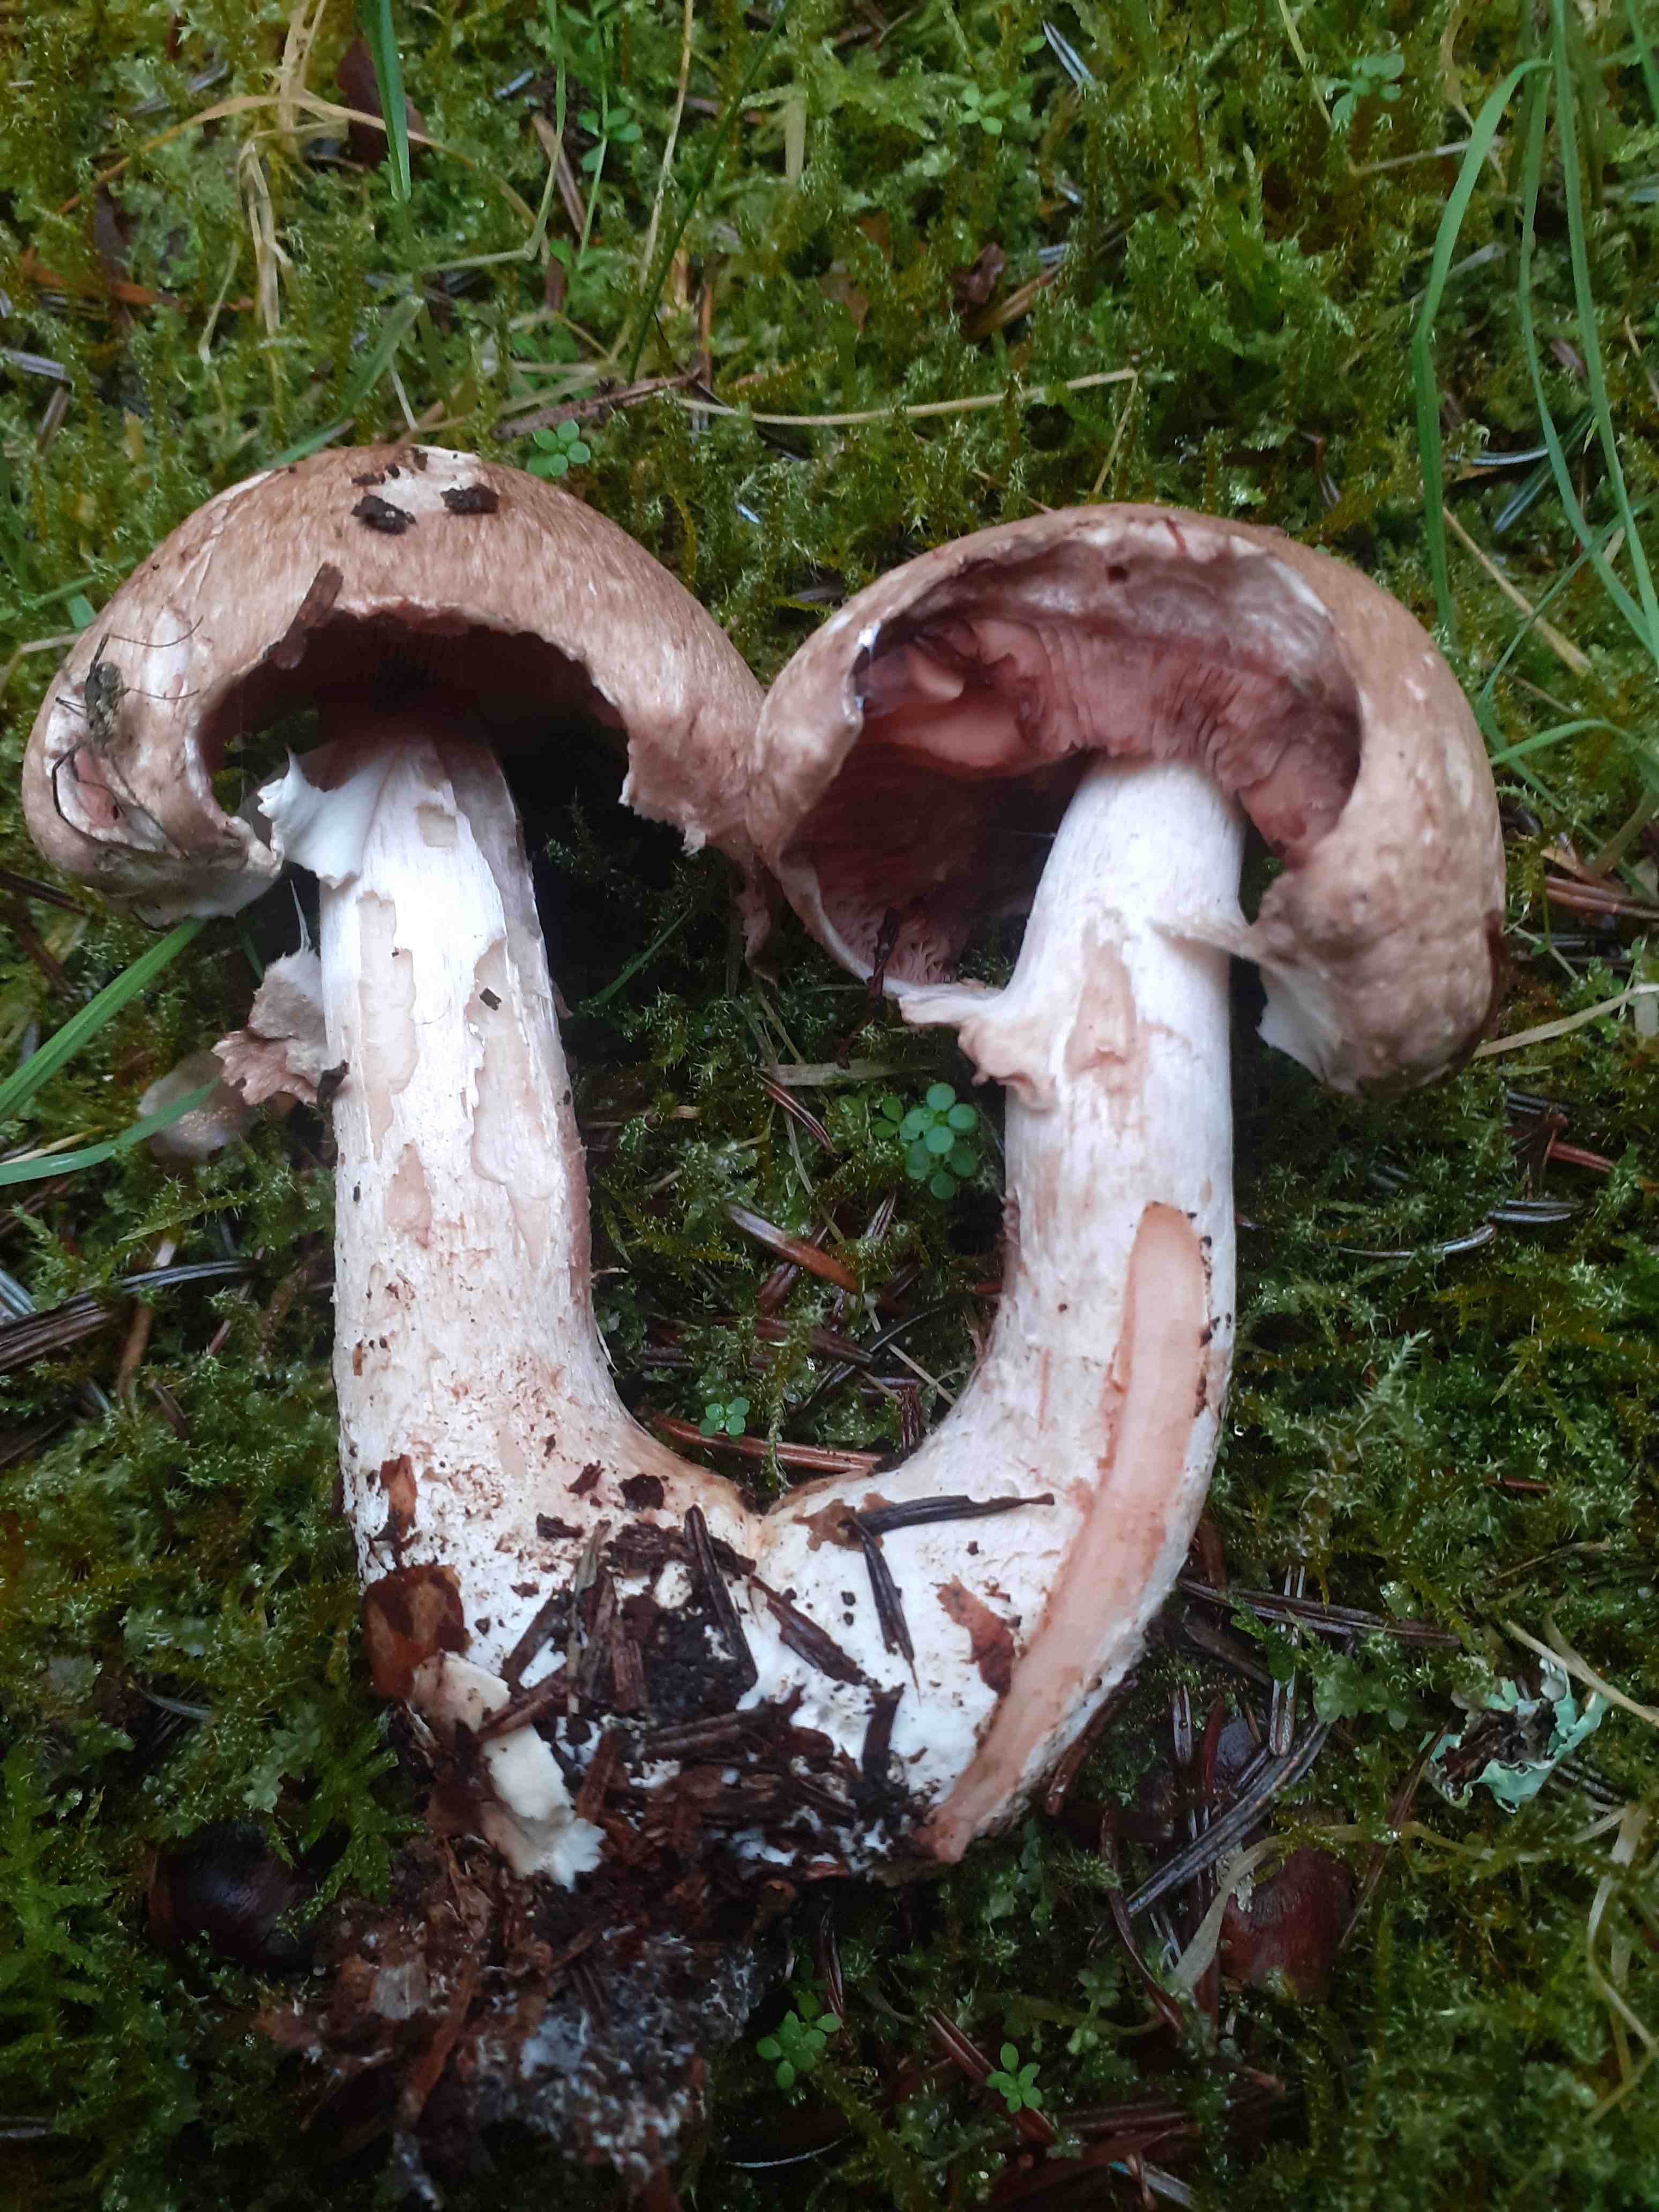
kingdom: Fungi
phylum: Basidiomycota
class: Agaricomycetes
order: Agaricales
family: Agaricaceae
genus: Agaricus
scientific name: Agaricus sylvaticus
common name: lille blod-champignon
